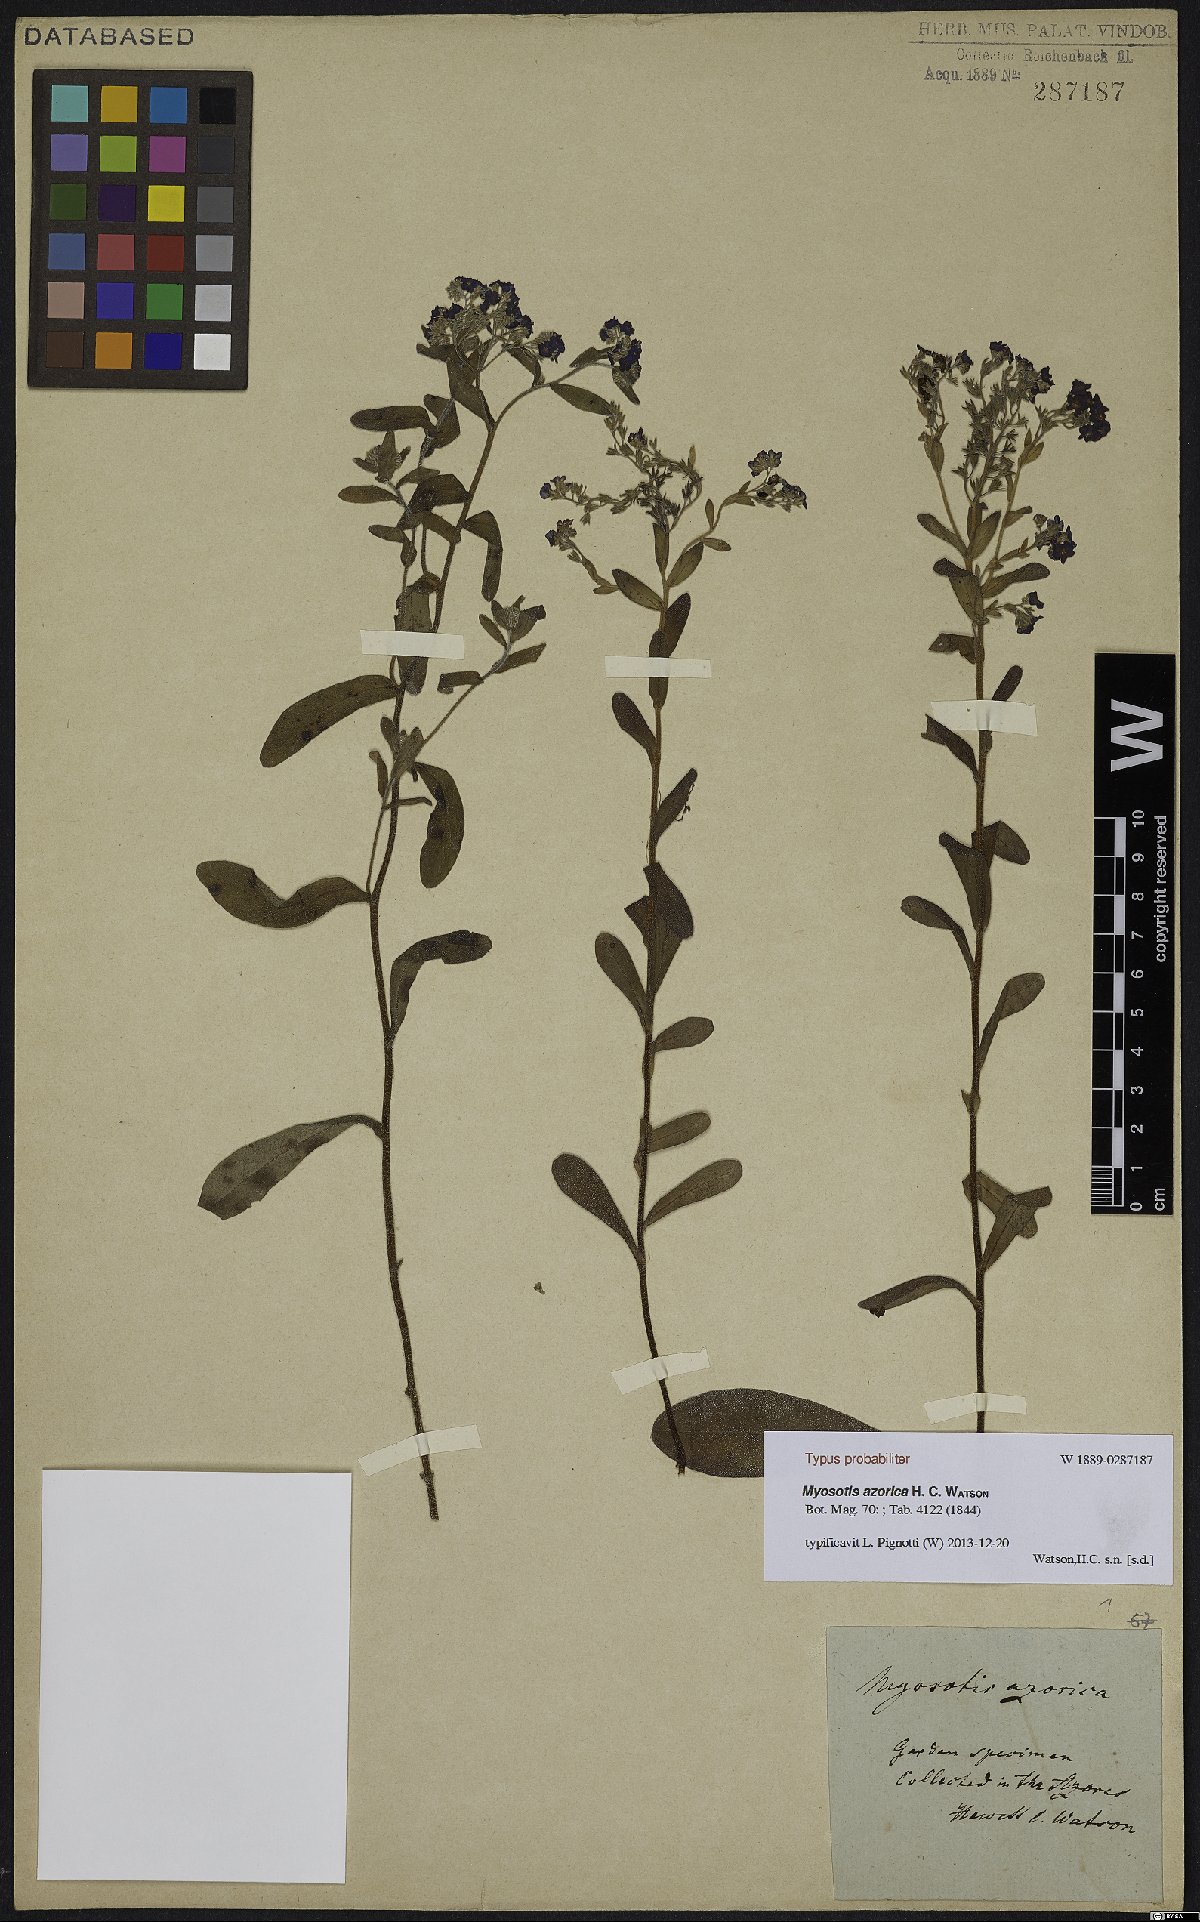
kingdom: Plantae
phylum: Tracheophyta
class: Magnoliopsida
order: Boraginales
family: Boraginaceae
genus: Myosotis
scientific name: Myosotis azorica
